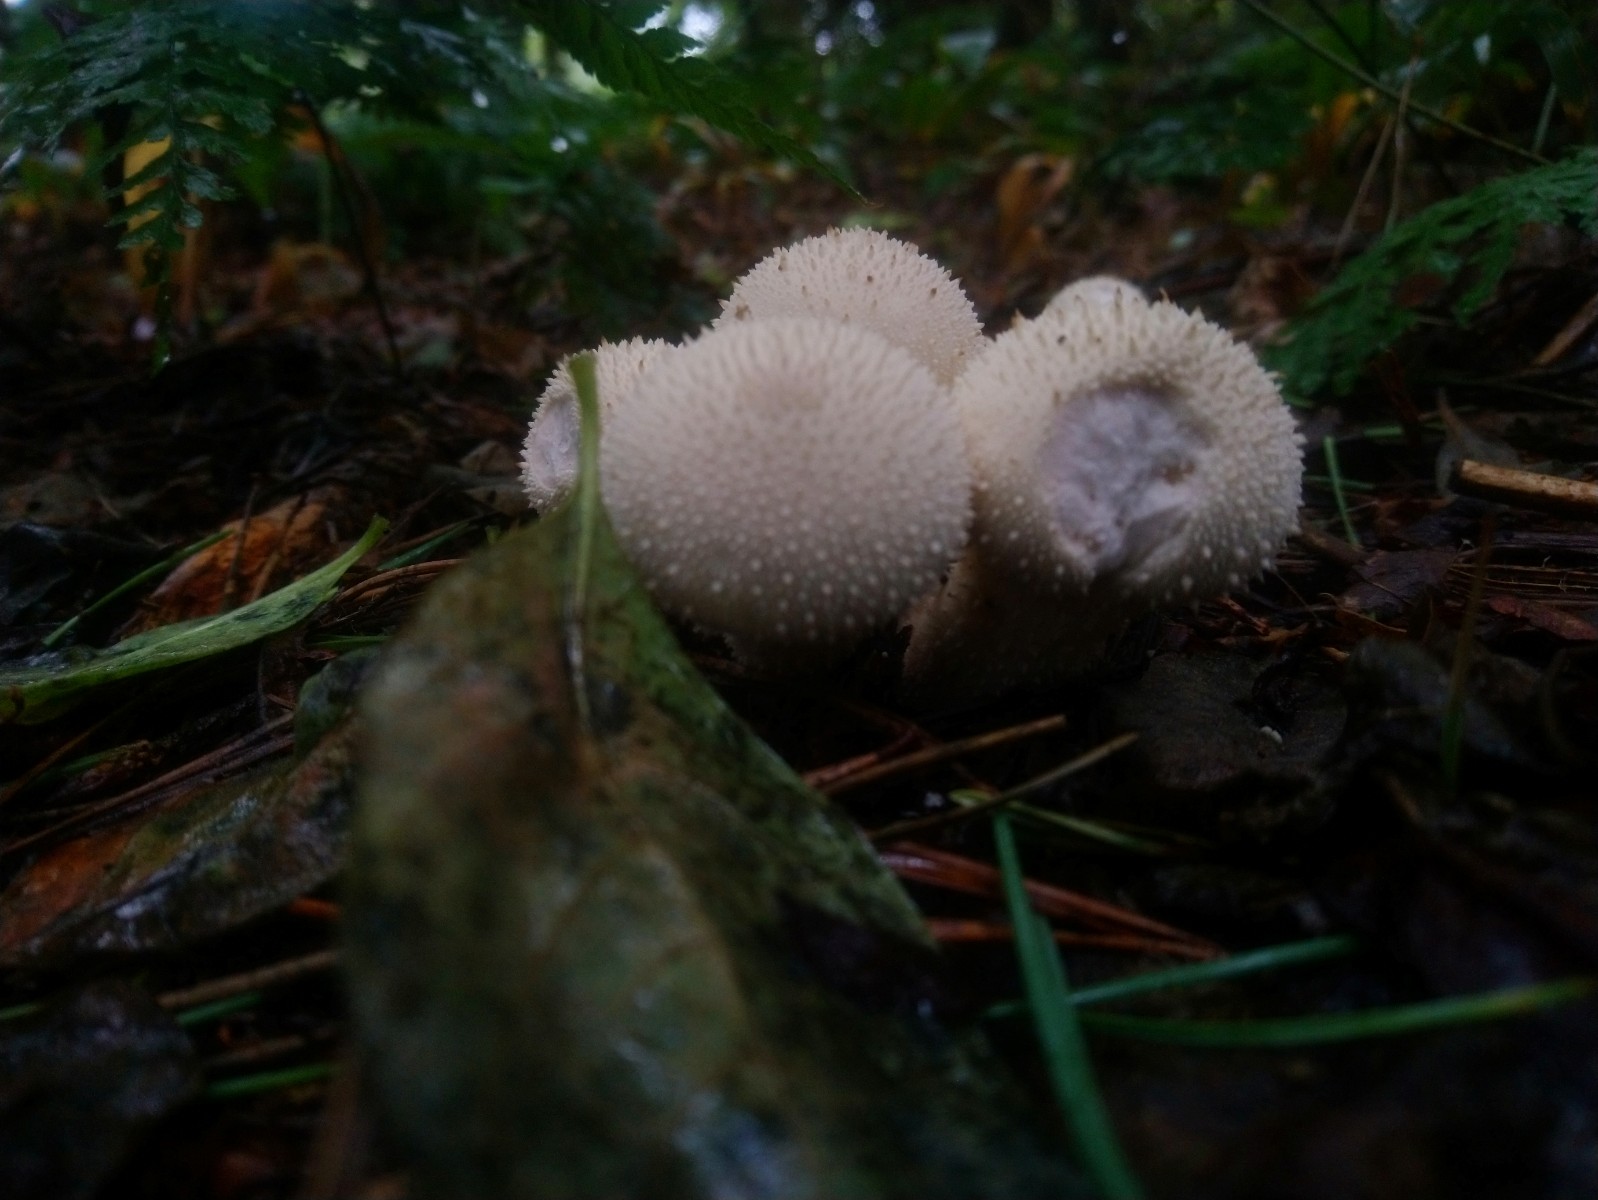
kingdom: Fungi
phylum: Basidiomycota
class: Agaricomycetes
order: Agaricales
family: Lycoperdaceae
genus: Lycoperdon
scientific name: Lycoperdon perlatum
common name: krystal-støvbold
